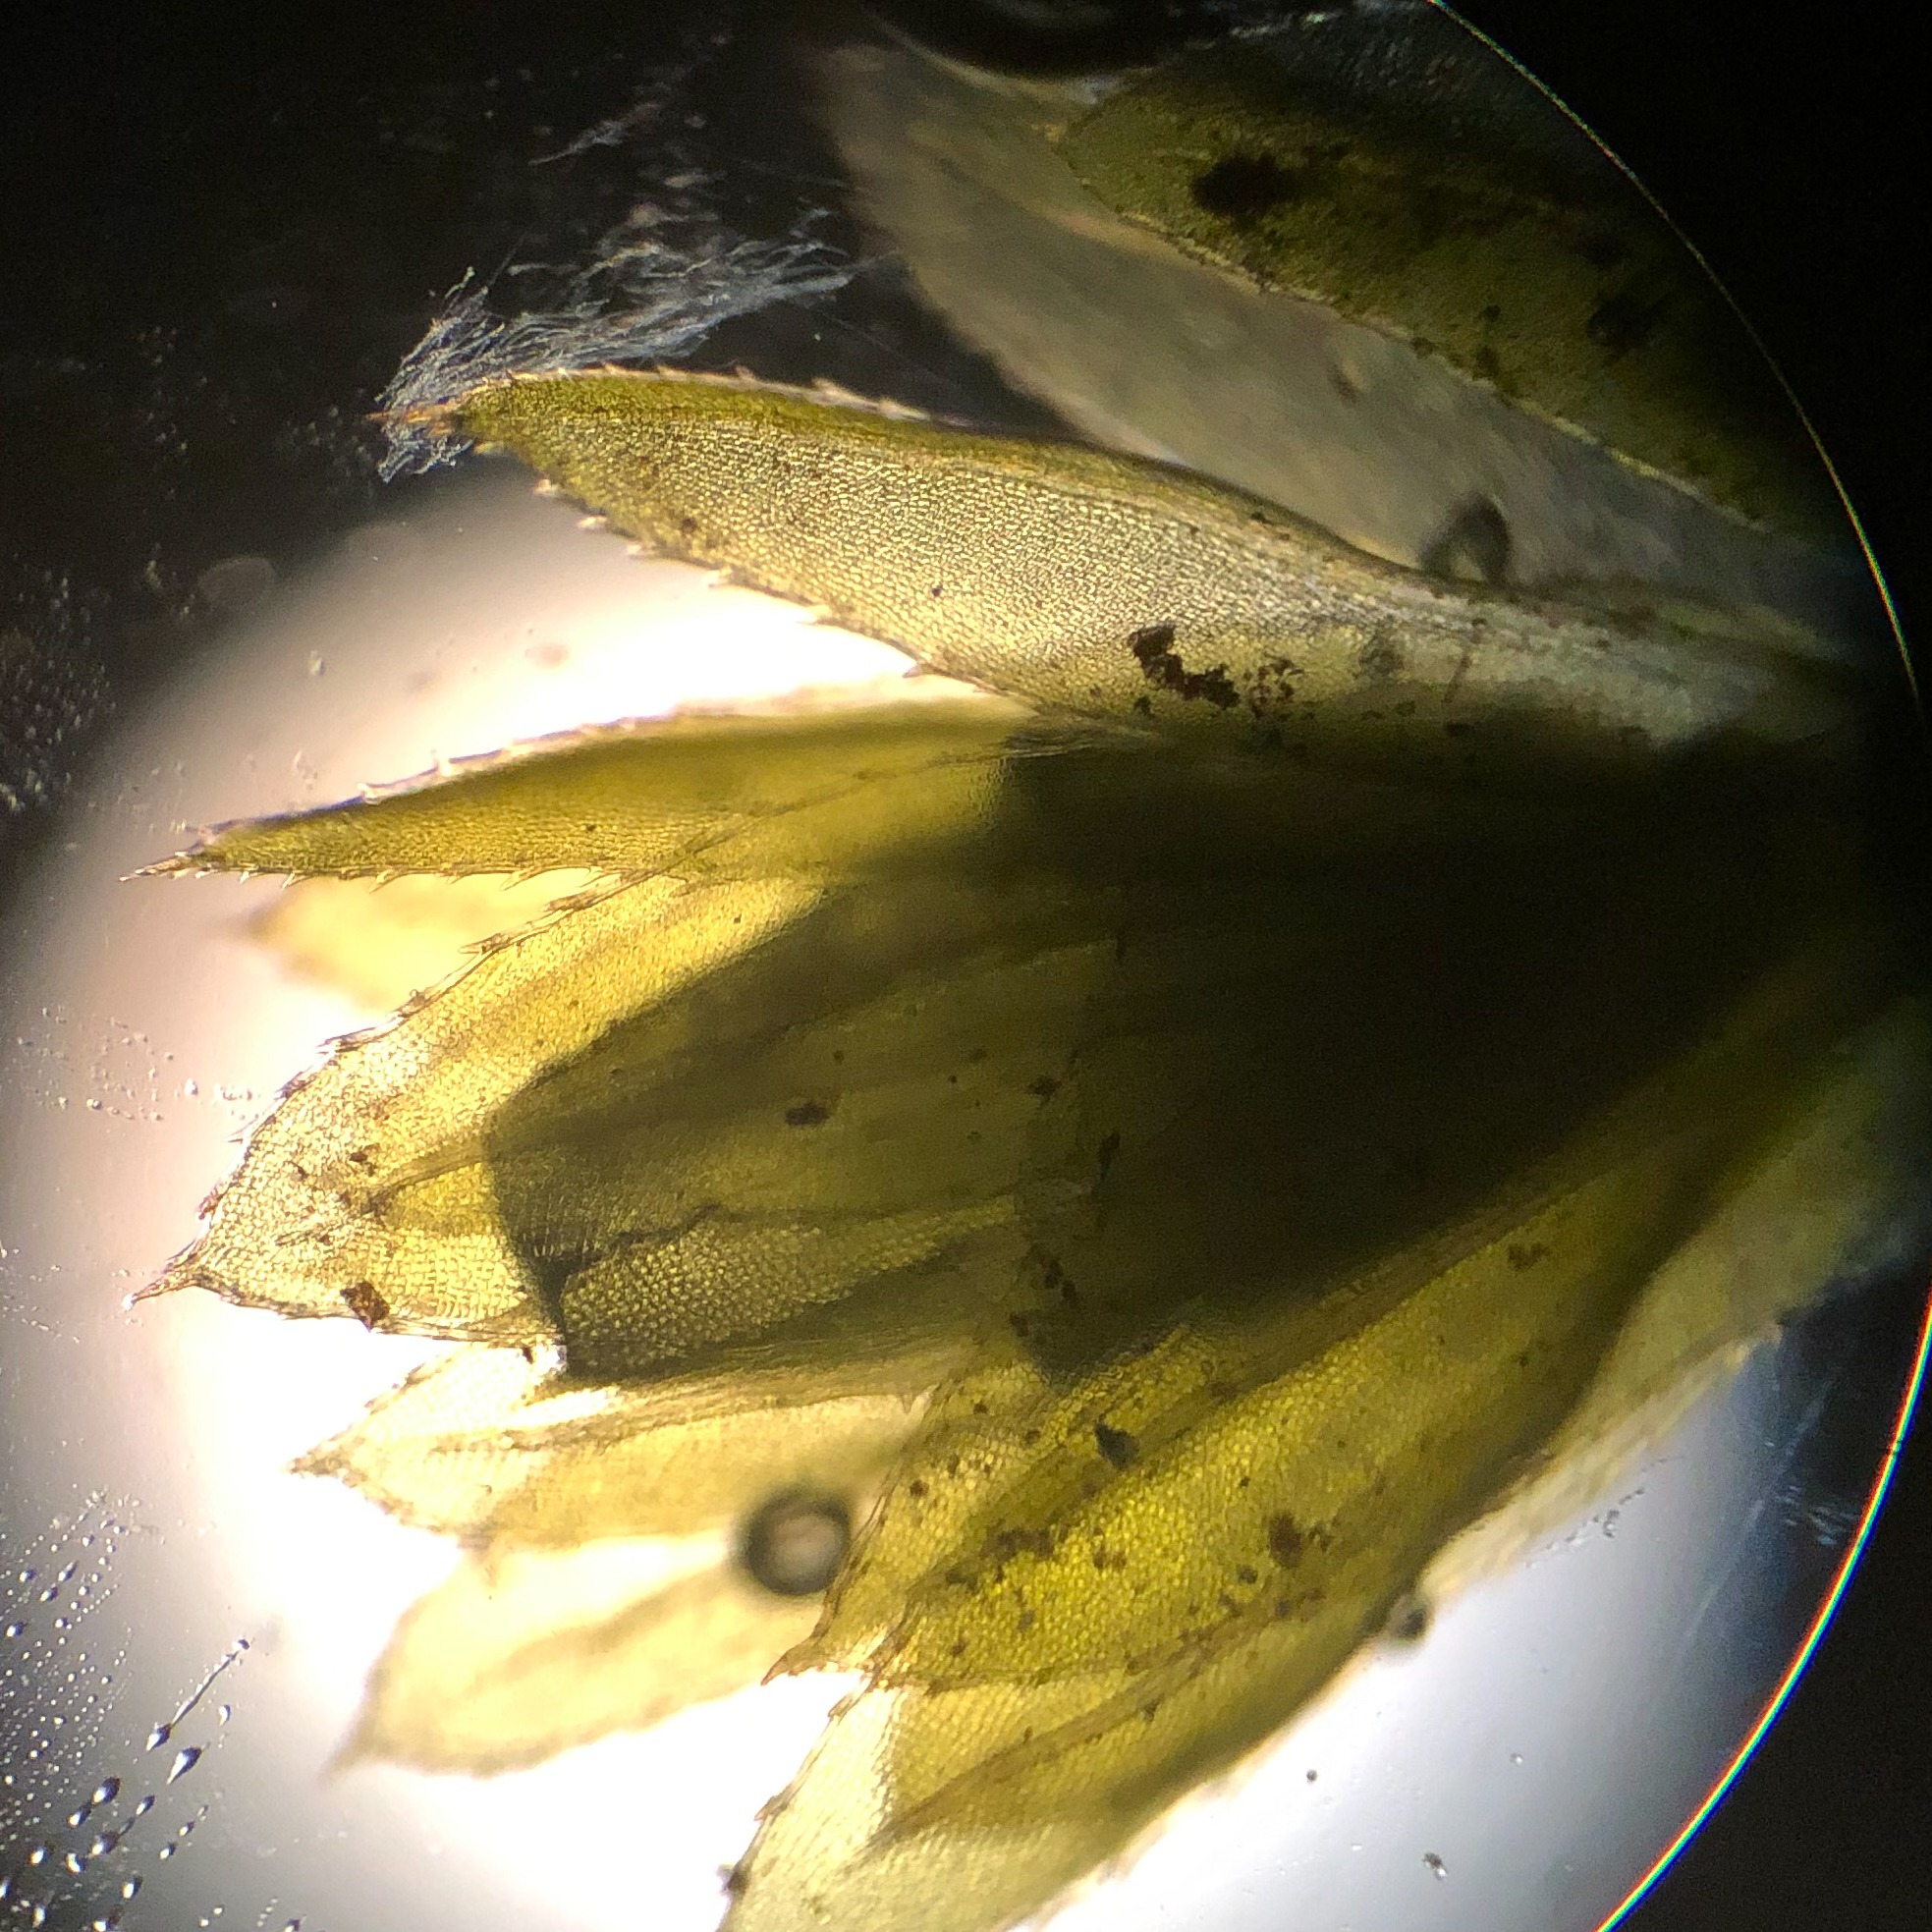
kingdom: Plantae
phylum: Bryophyta
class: Bryopsida
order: Bryales
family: Mniaceae
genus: Mnium
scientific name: Mnium hornum
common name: Brunfiltet stjernemos
